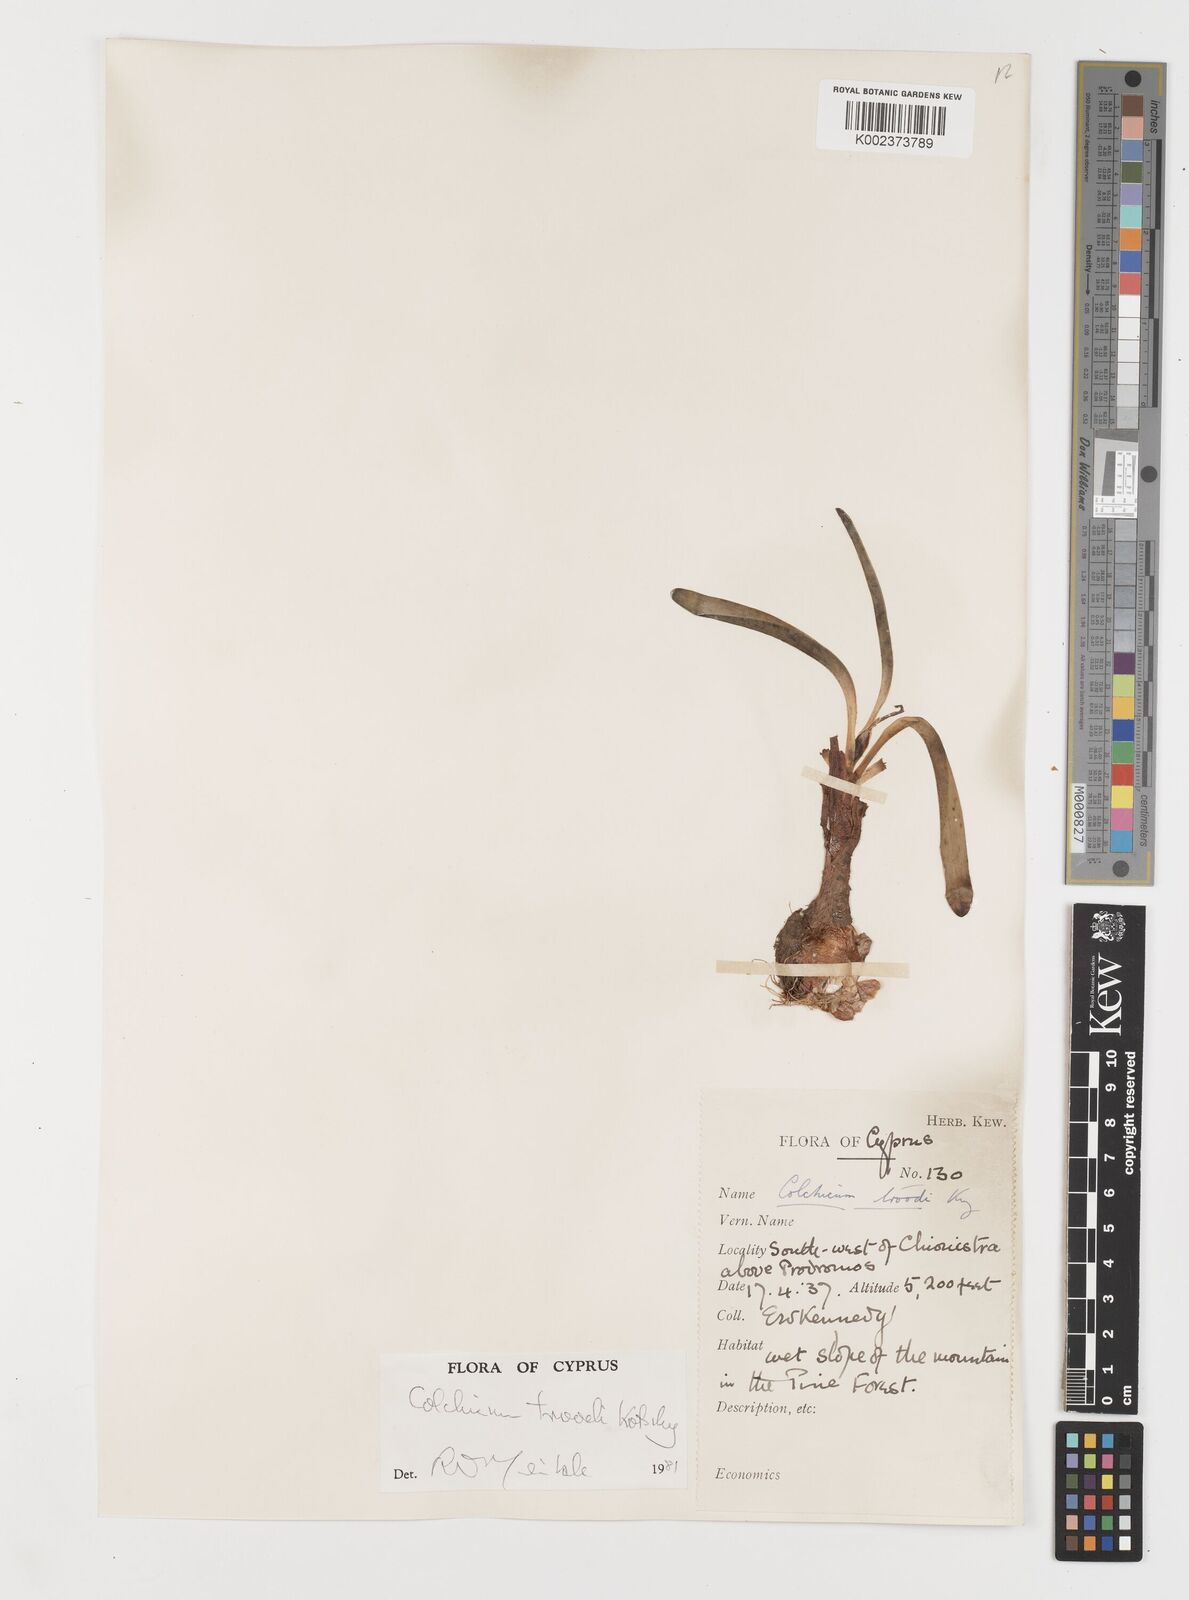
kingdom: Plantae
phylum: Tracheophyta
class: Liliopsida
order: Liliales
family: Colchicaceae
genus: Colchicum
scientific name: Colchicum
